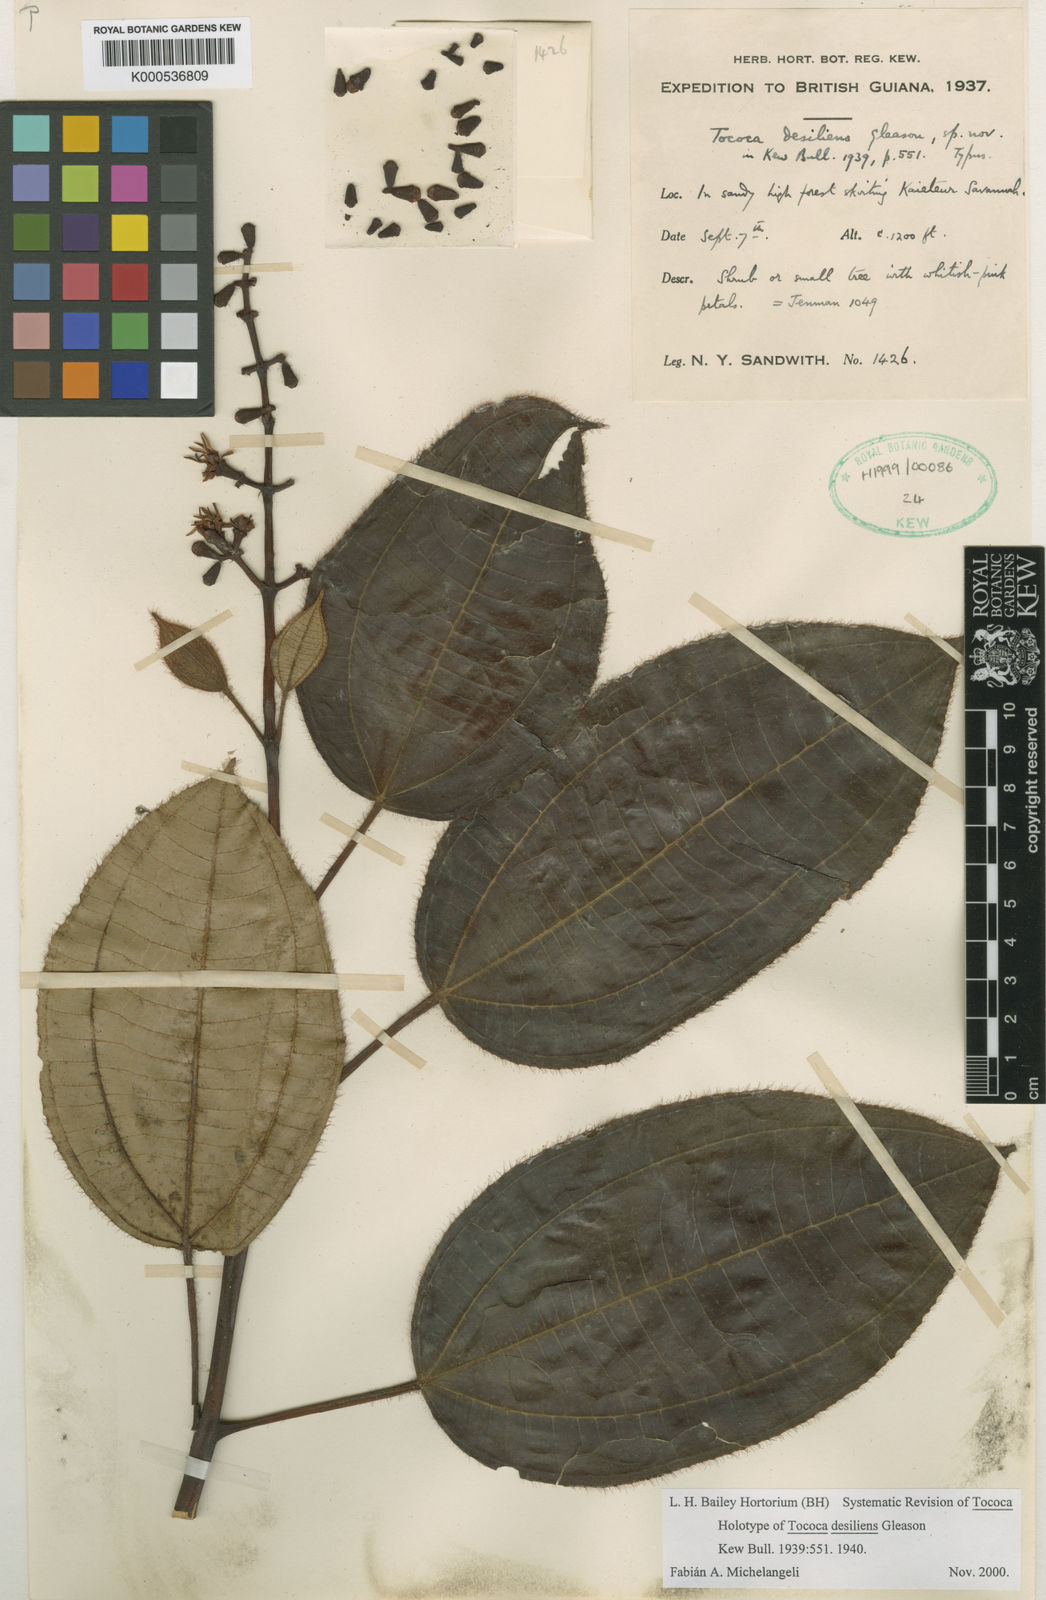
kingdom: Plantae
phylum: Tracheophyta
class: Magnoliopsida
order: Myrtales
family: Melastomataceae
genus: Miconia
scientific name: Miconia desiliens
